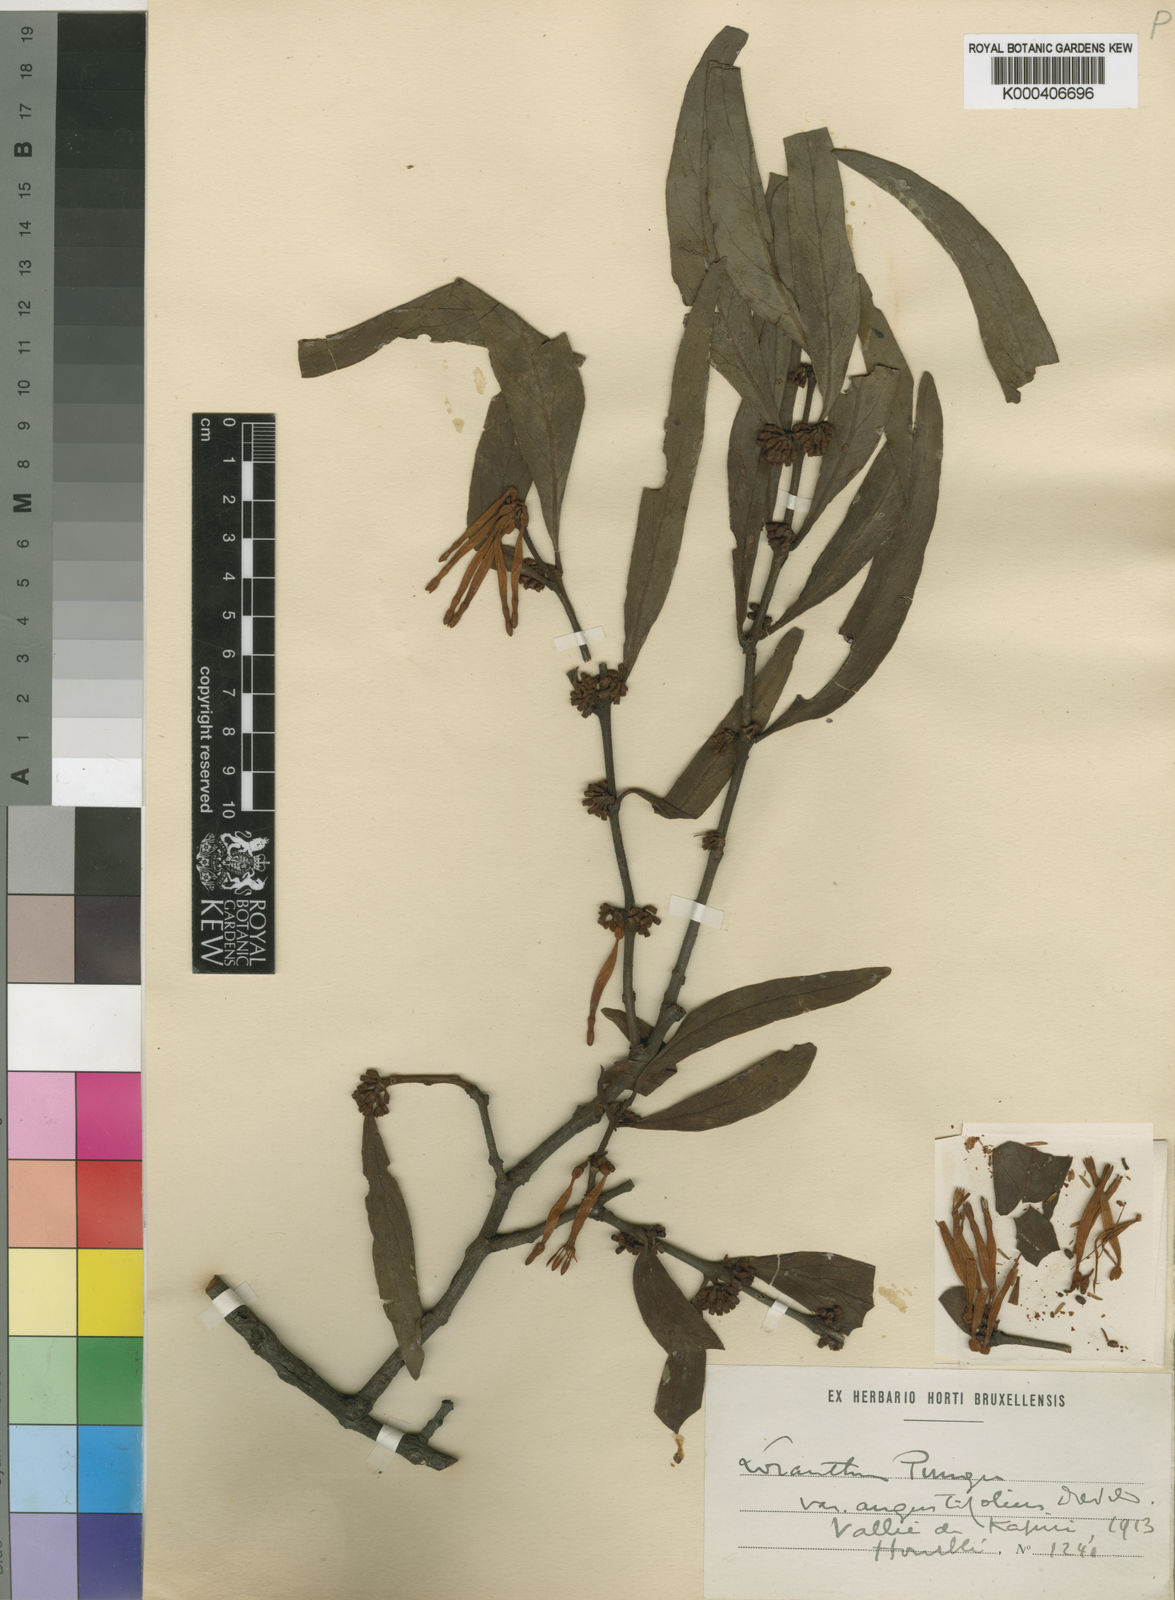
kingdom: Plantae
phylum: Tracheophyta
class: Magnoliopsida
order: Santalales
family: Loranthaceae
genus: Agelanthus
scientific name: Agelanthus pungu
